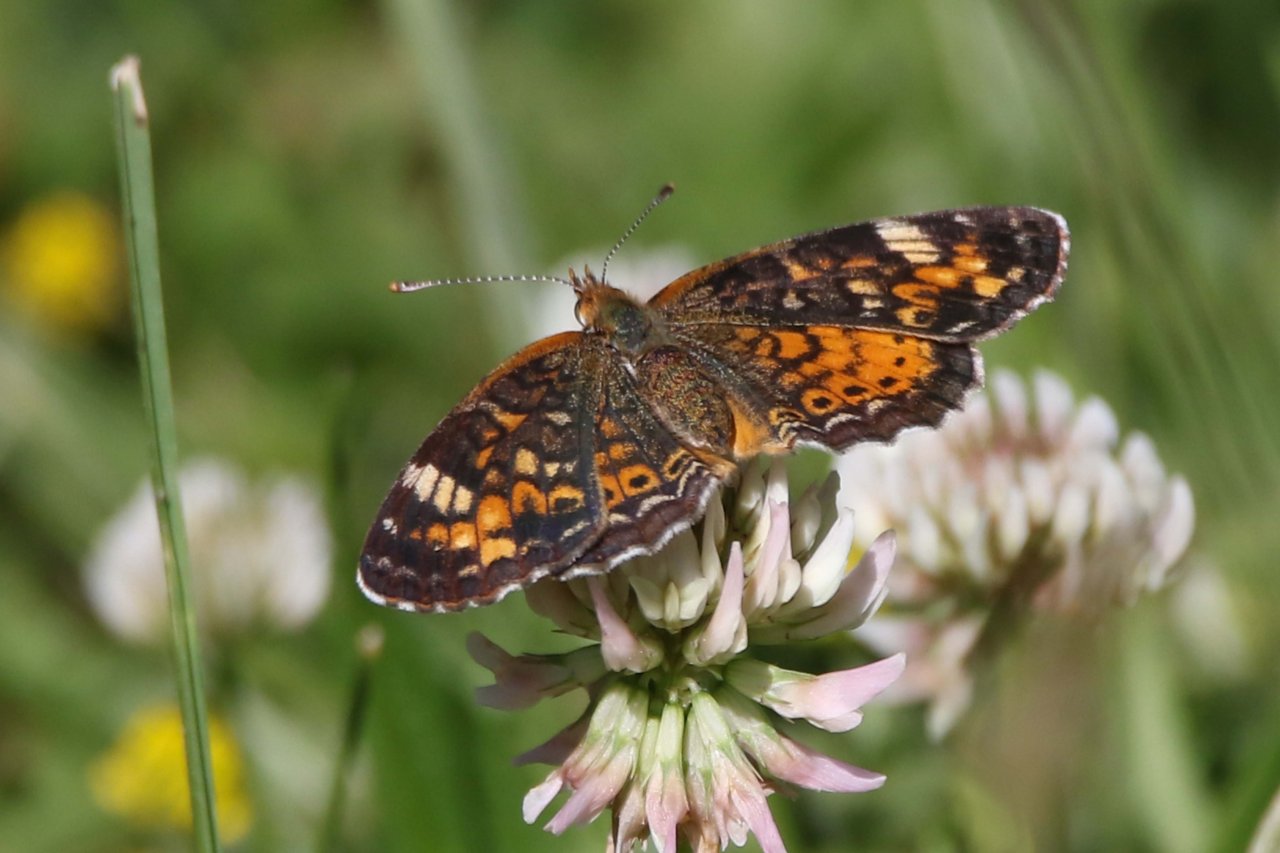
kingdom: Animalia
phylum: Arthropoda
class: Insecta
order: Lepidoptera
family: Nymphalidae
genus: Phyciodes
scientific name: Phyciodes tharos
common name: Pearl Crescent
